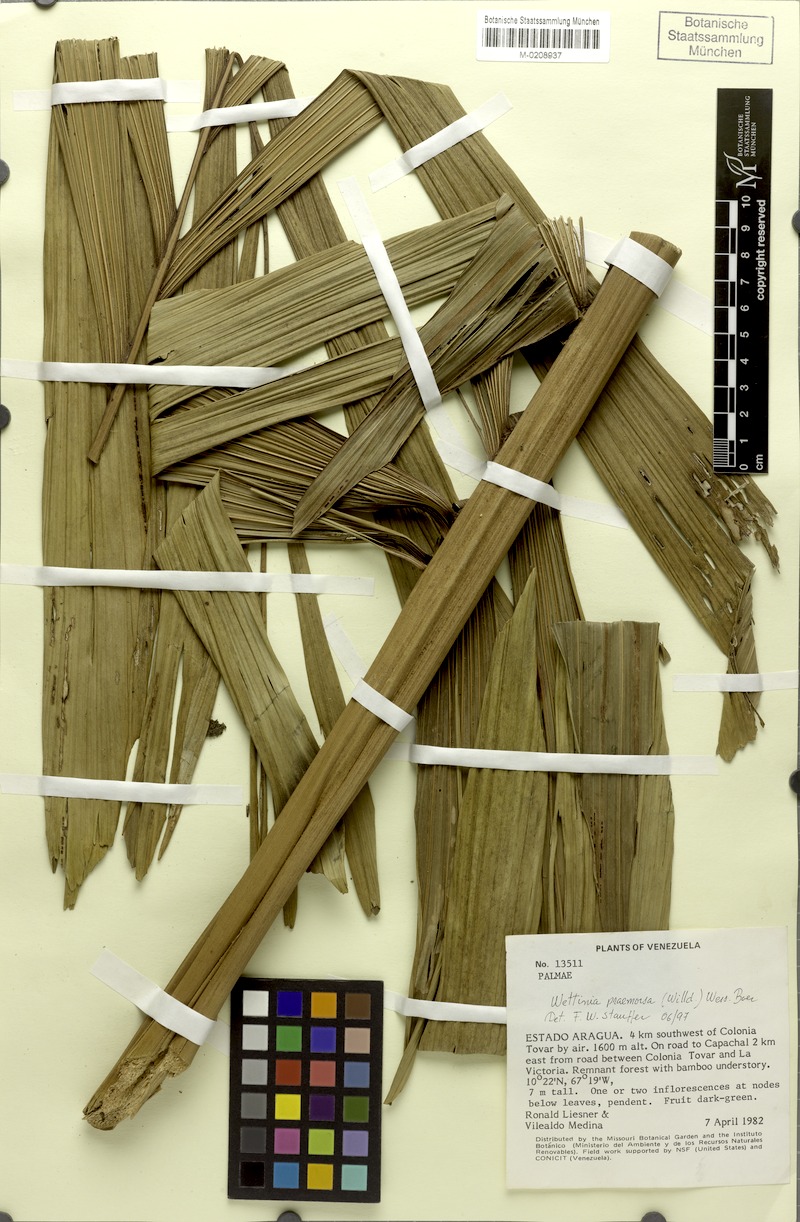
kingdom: Plantae
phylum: Tracheophyta
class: Liliopsida
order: Arecales
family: Arecaceae
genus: Wettinia
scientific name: Wettinia praemorsa
